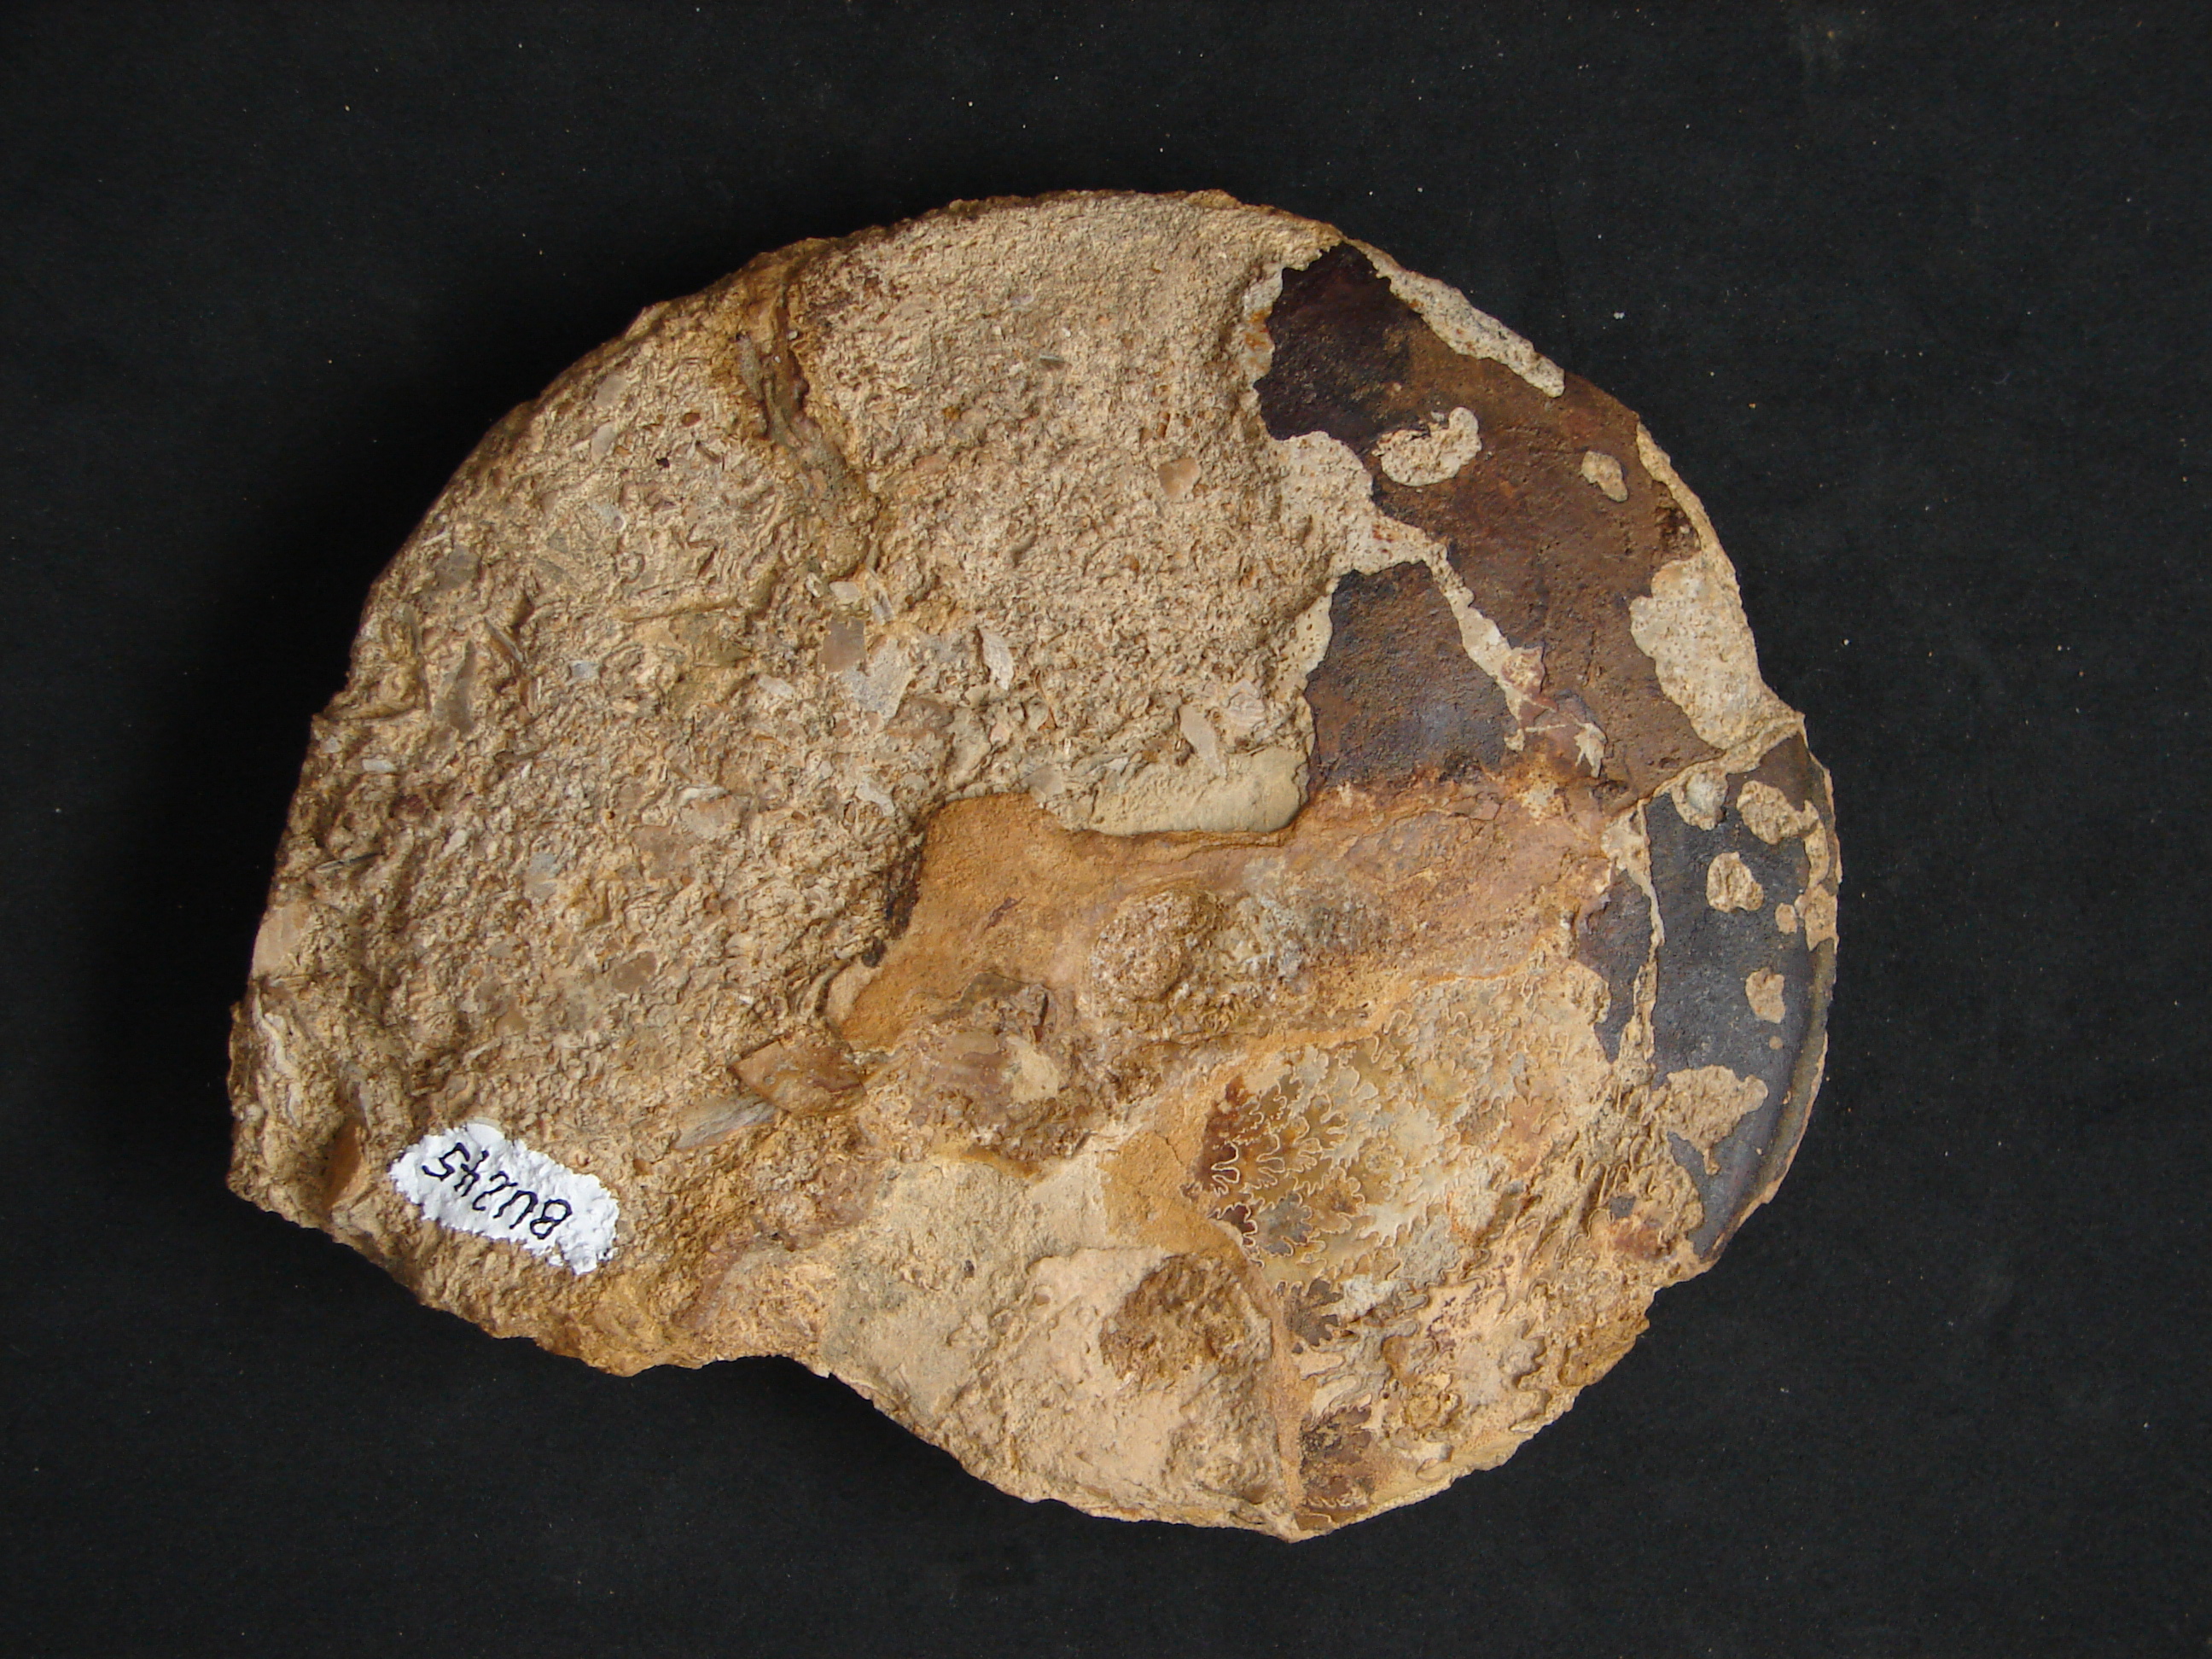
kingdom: Animalia
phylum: Mollusca
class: Cephalopoda
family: Graphoceratidae
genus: Hyperlioceras
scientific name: Hyperlioceras
